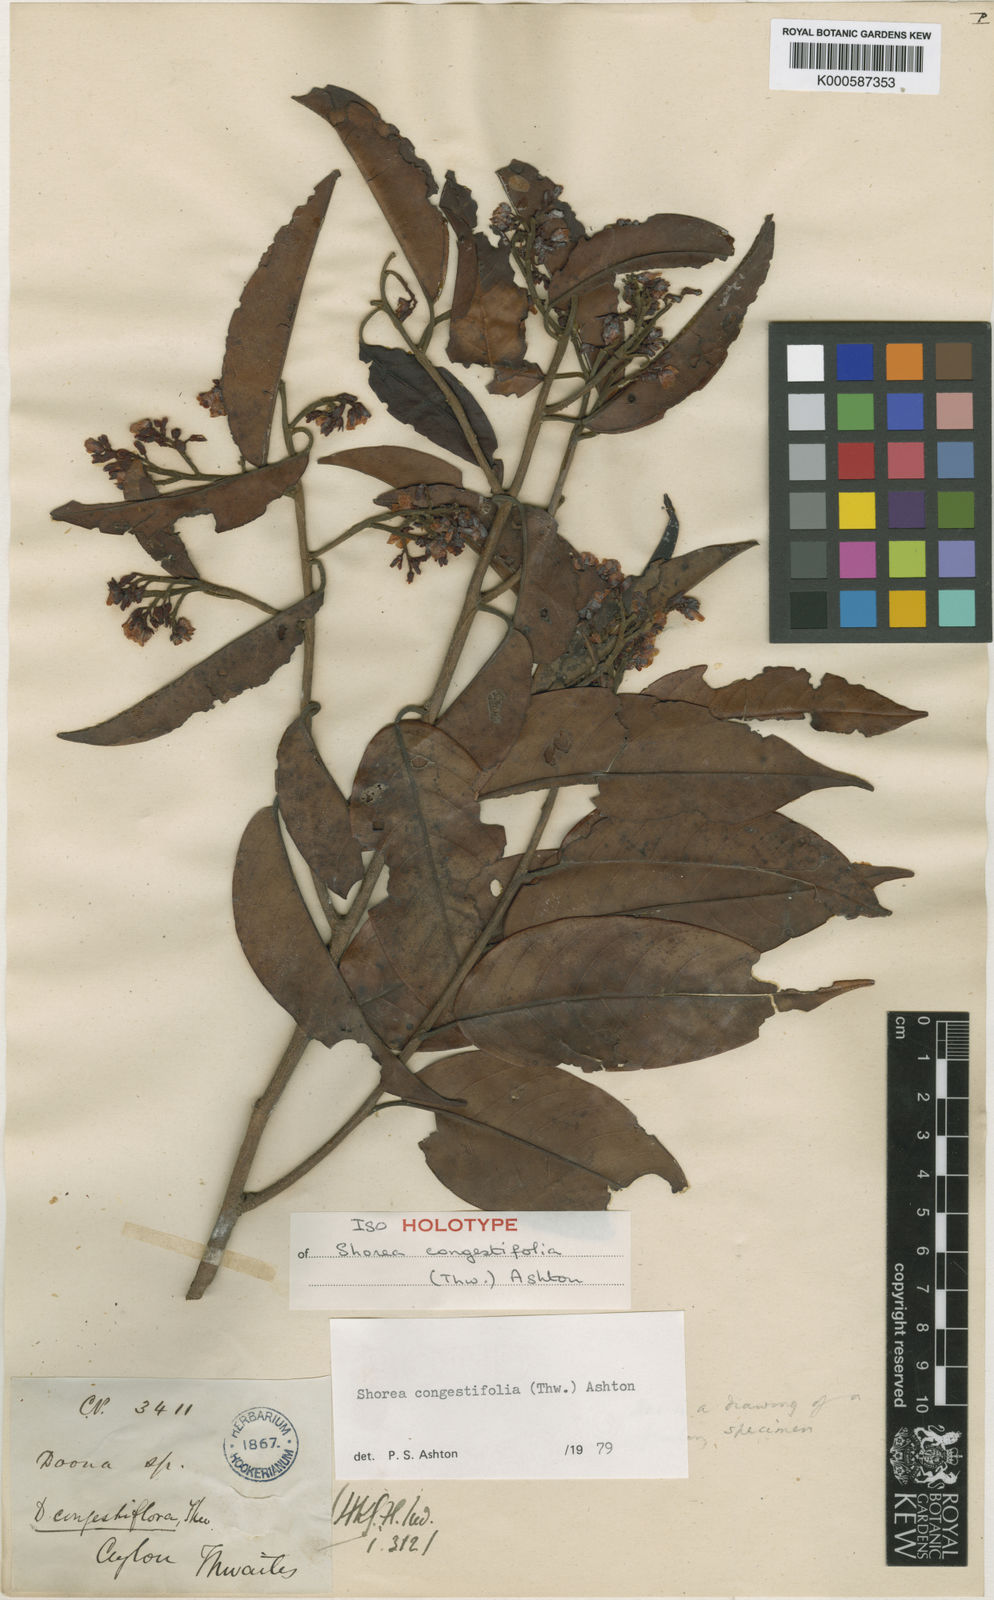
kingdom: Plantae
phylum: Tracheophyta
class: Magnoliopsida
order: Malvales
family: Dipterocarpaceae
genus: Doona
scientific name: Doona congestiflora
